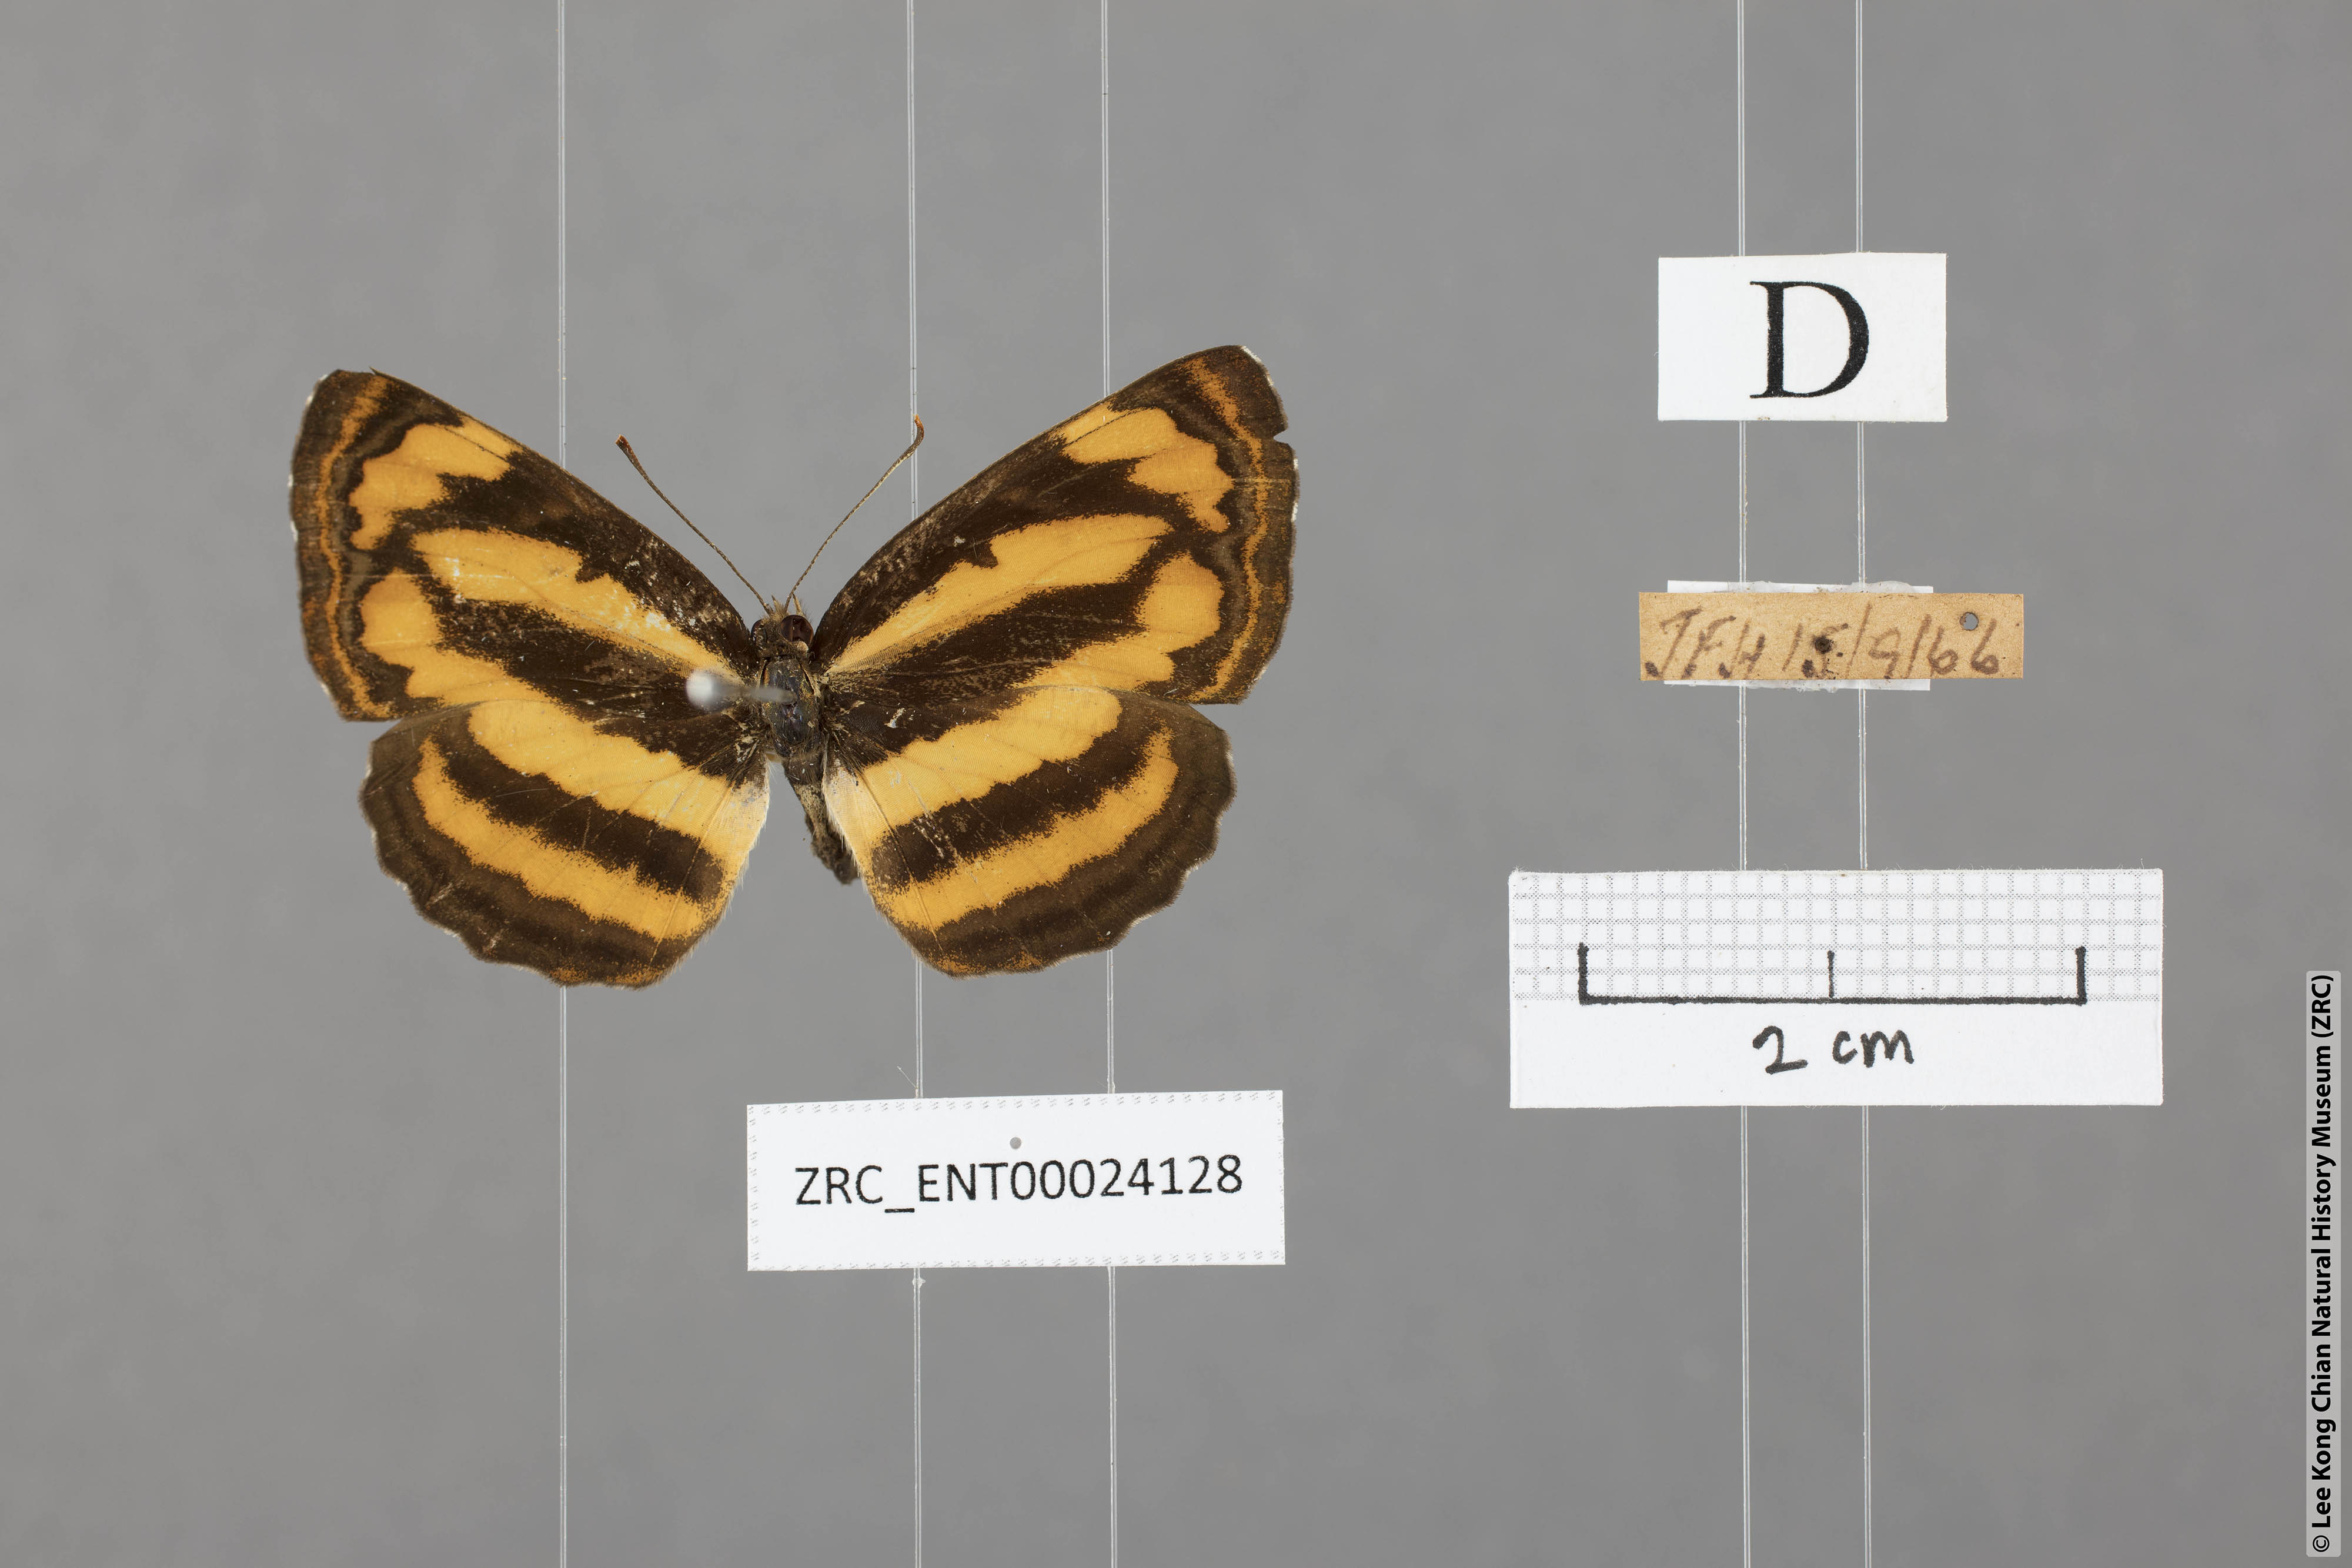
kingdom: Animalia
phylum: Arthropoda
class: Insecta
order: Lepidoptera
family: Nymphalidae
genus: Pantoporia
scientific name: Pantoporia hordonia
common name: Common lascar
